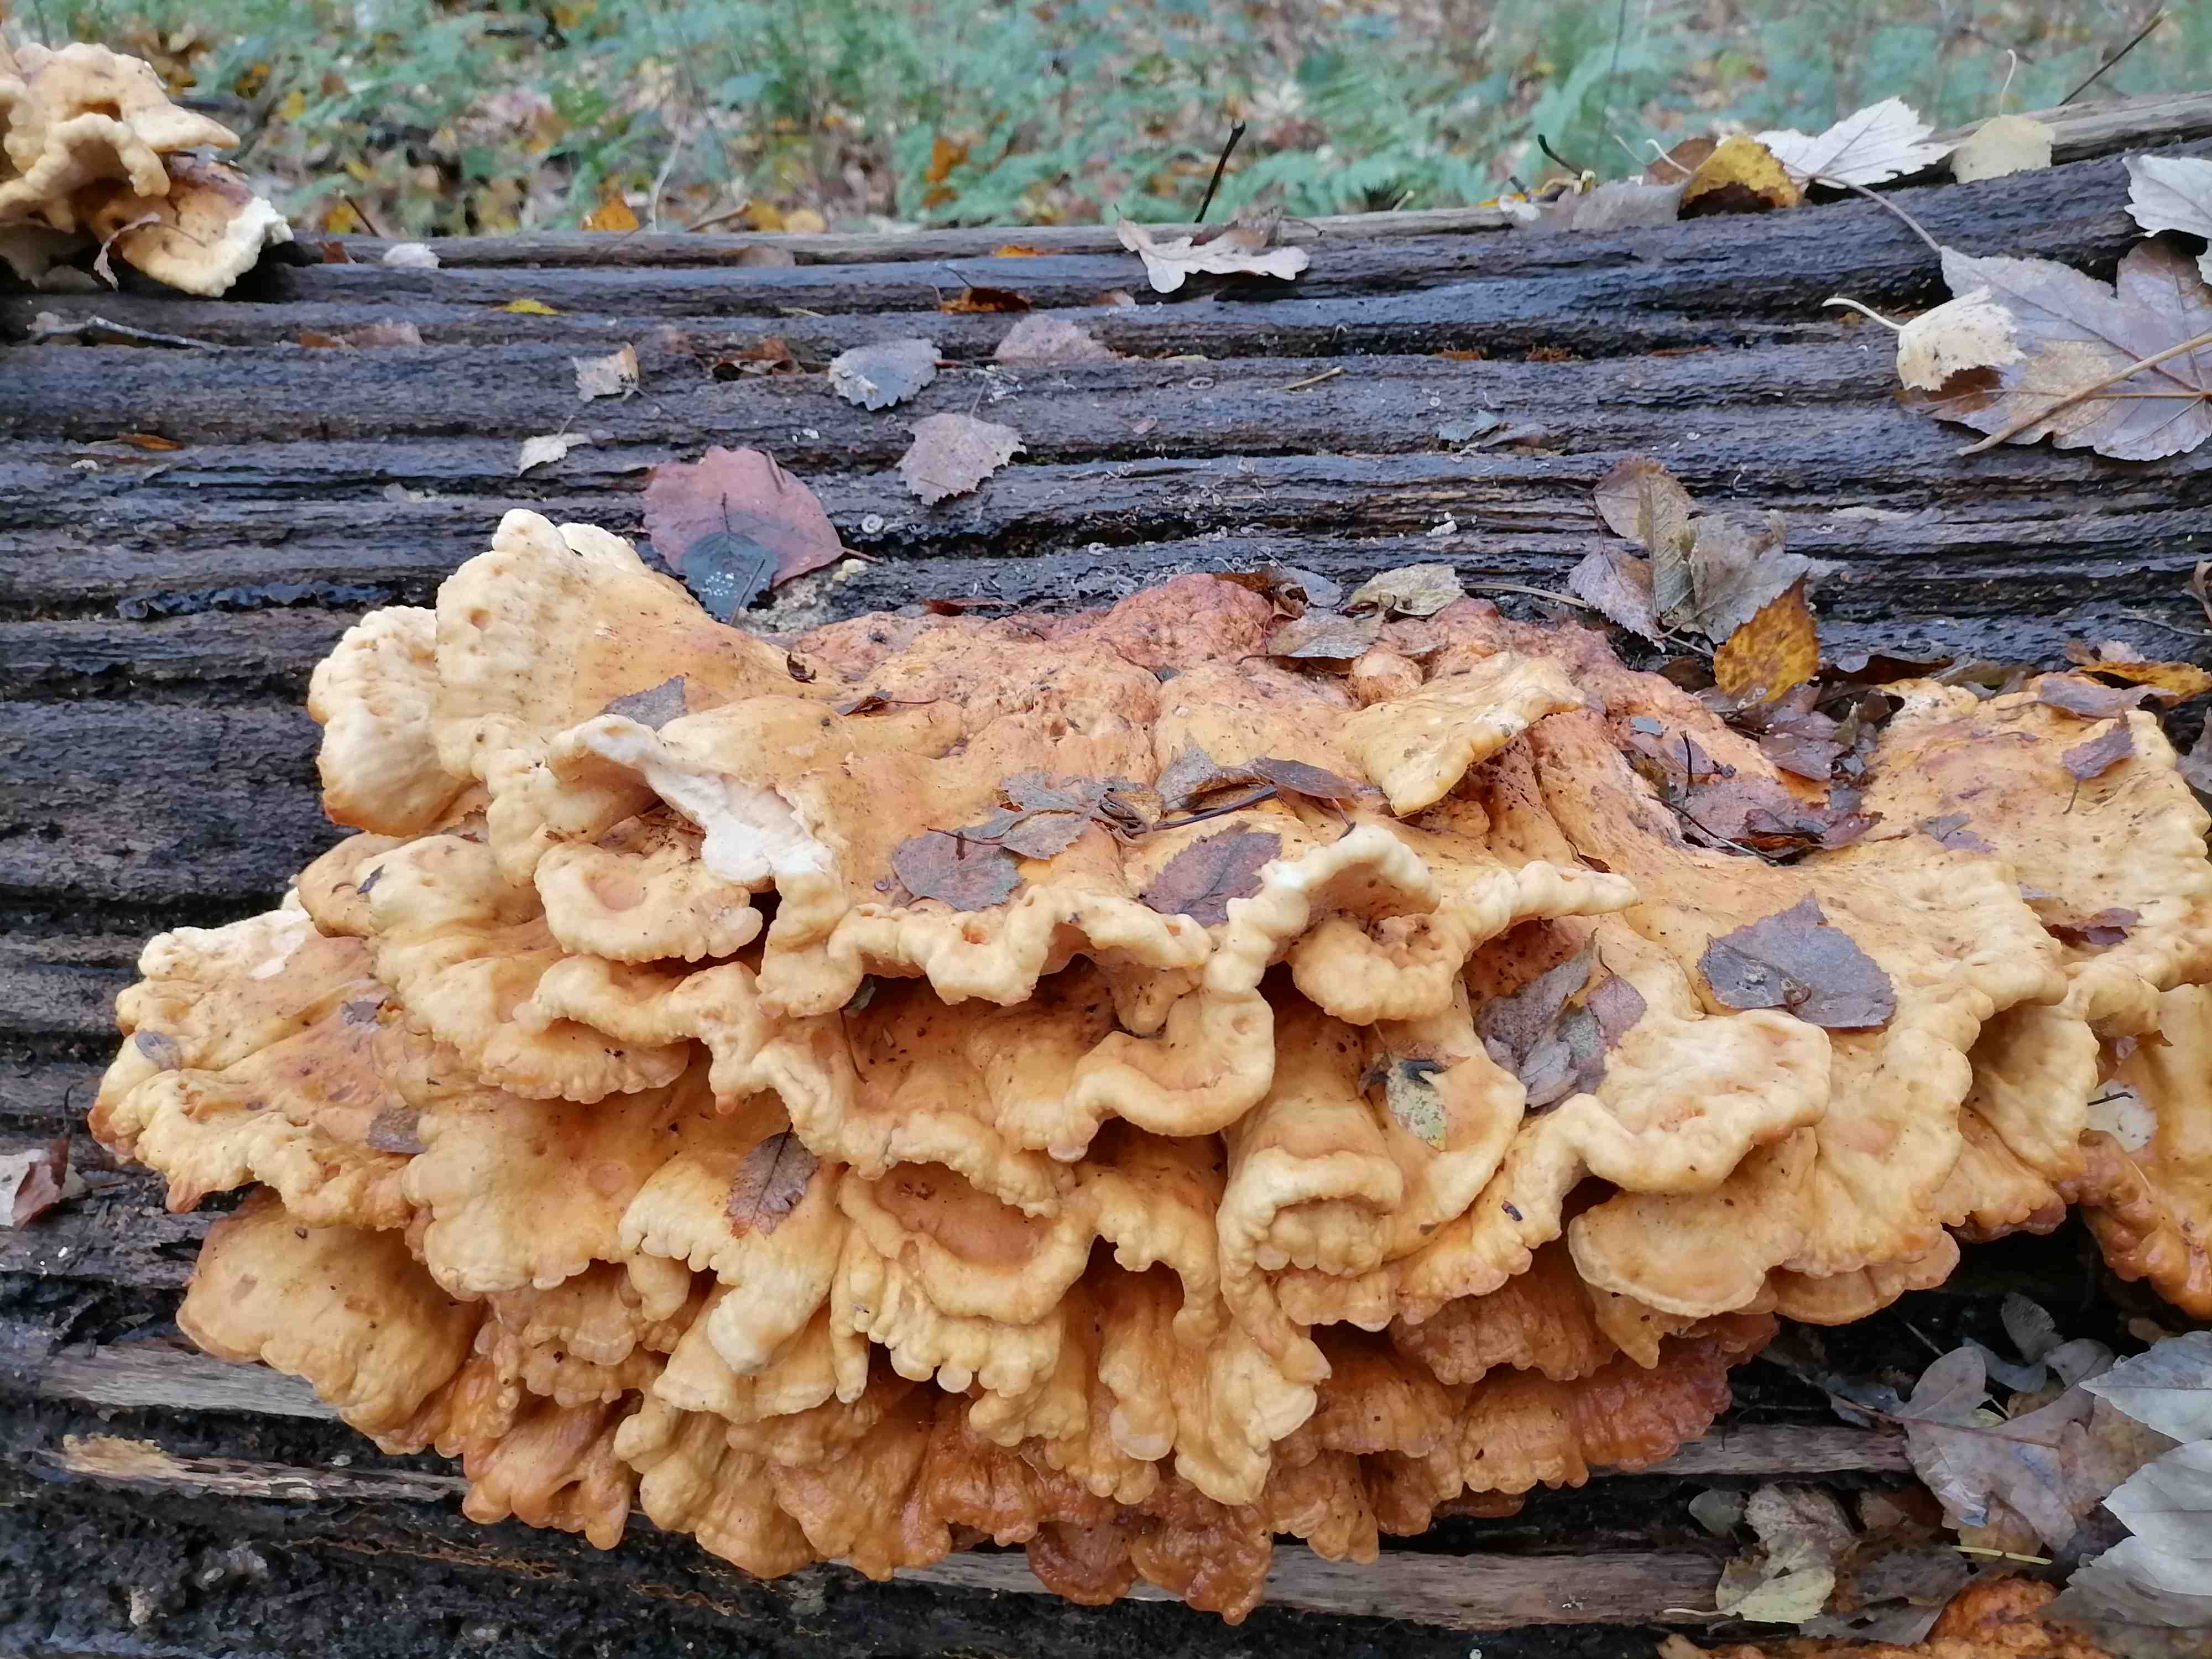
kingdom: Fungi
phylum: Basidiomycota
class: Agaricomycetes
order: Polyporales
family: Laetiporaceae
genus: Laetiporus
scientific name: Laetiporus sulphureus
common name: svovlporesvamp
